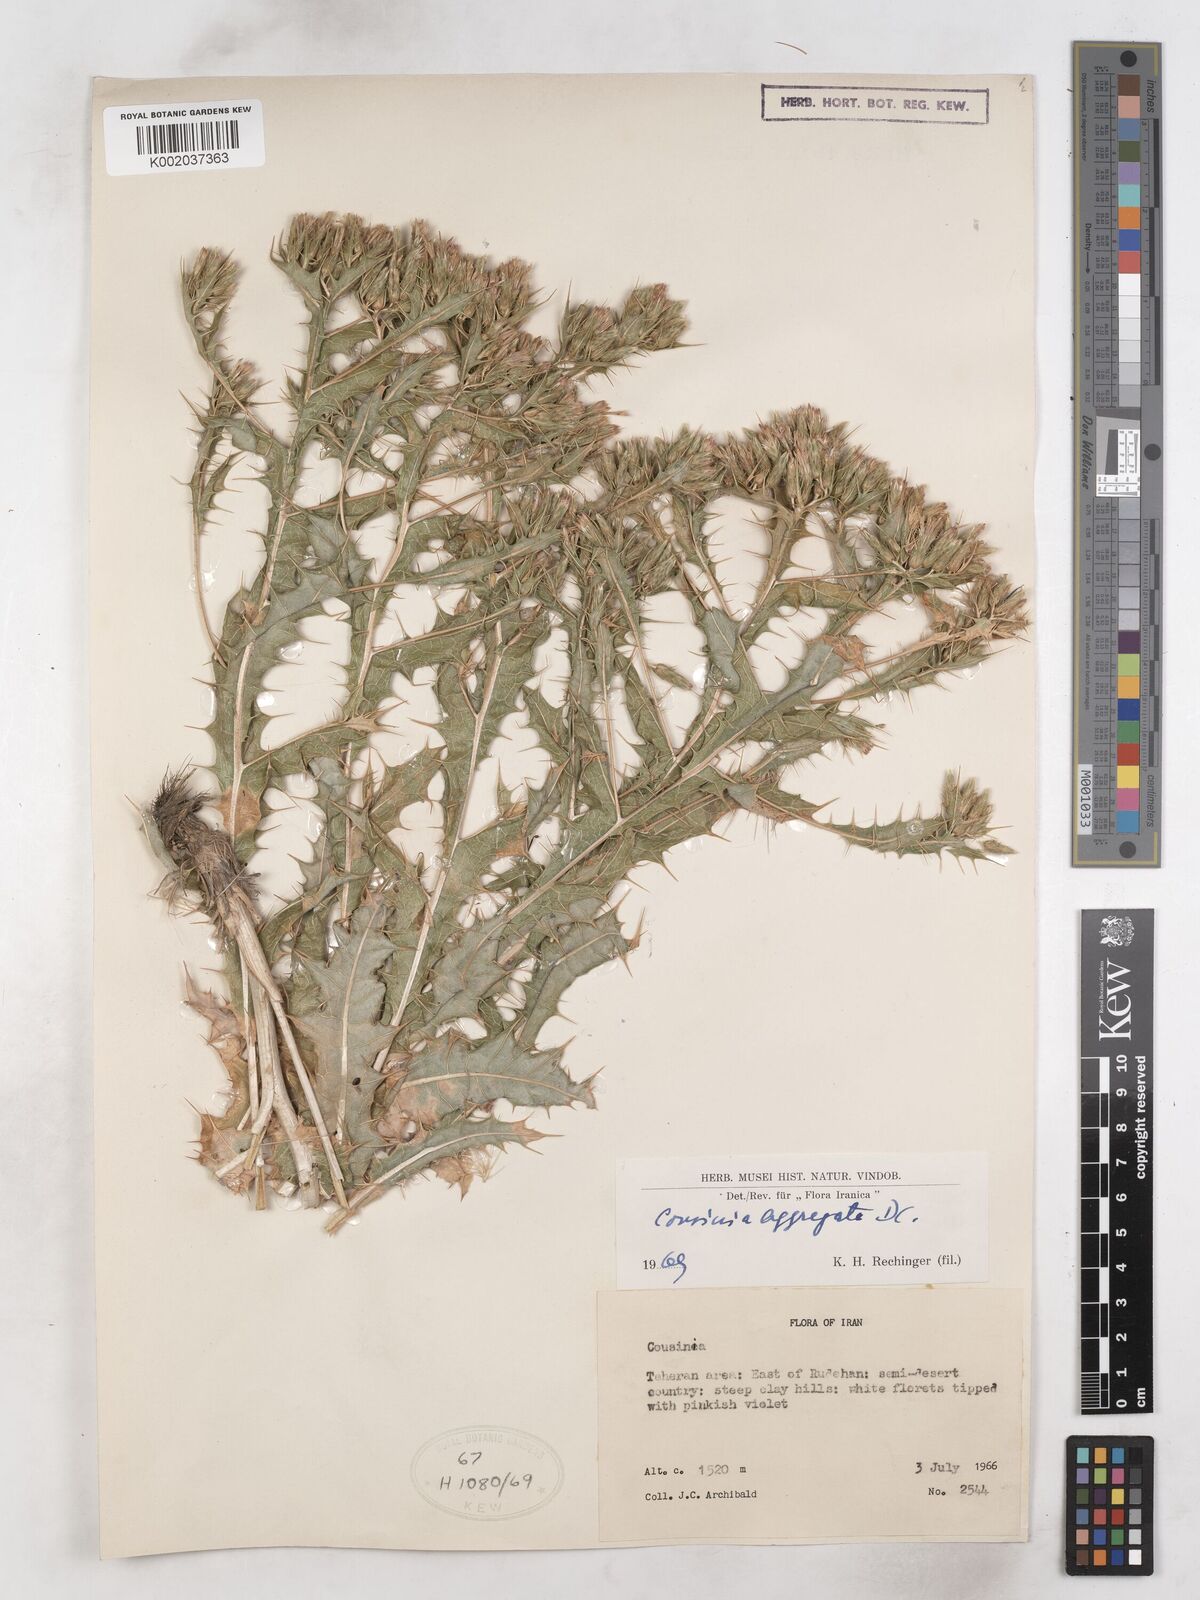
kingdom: Plantae
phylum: Tracheophyta
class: Magnoliopsida
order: Asterales
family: Asteraceae
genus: Cousinia
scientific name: Cousinia aggregata
